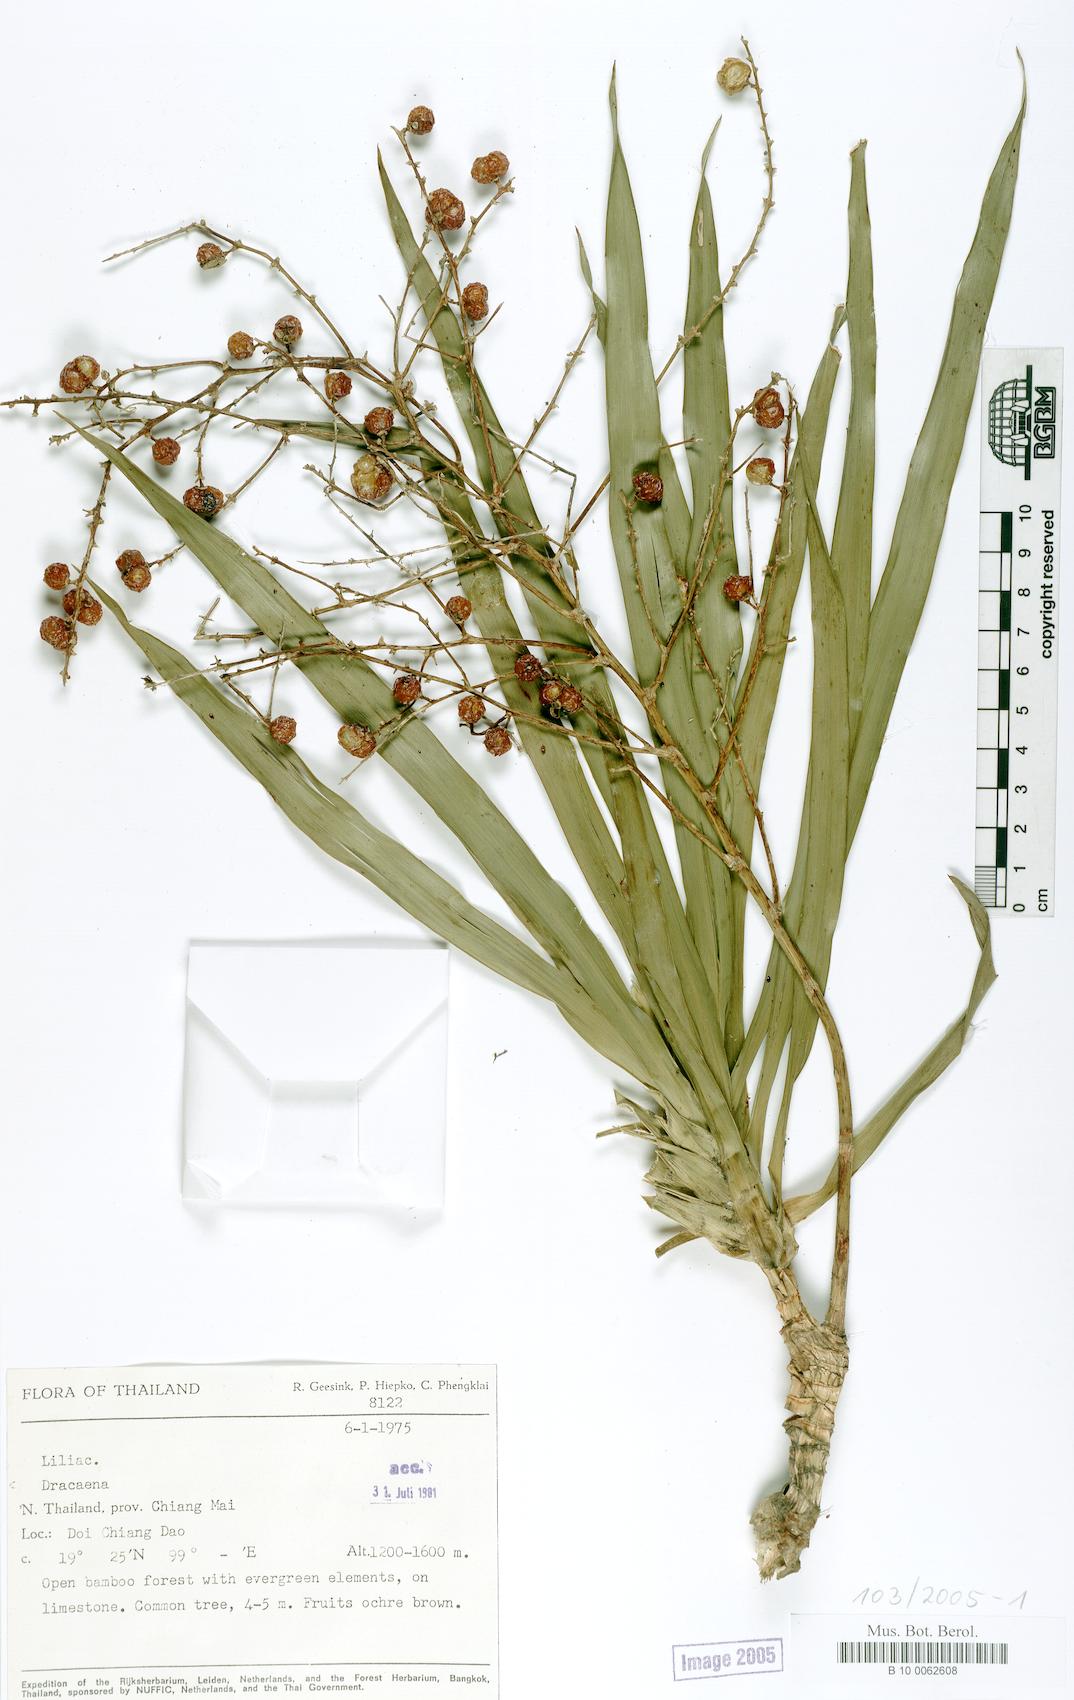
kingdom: Plantae
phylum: Tracheophyta
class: Liliopsida
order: Asparagales
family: Asparagaceae
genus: Dracaena
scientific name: Dracaena
